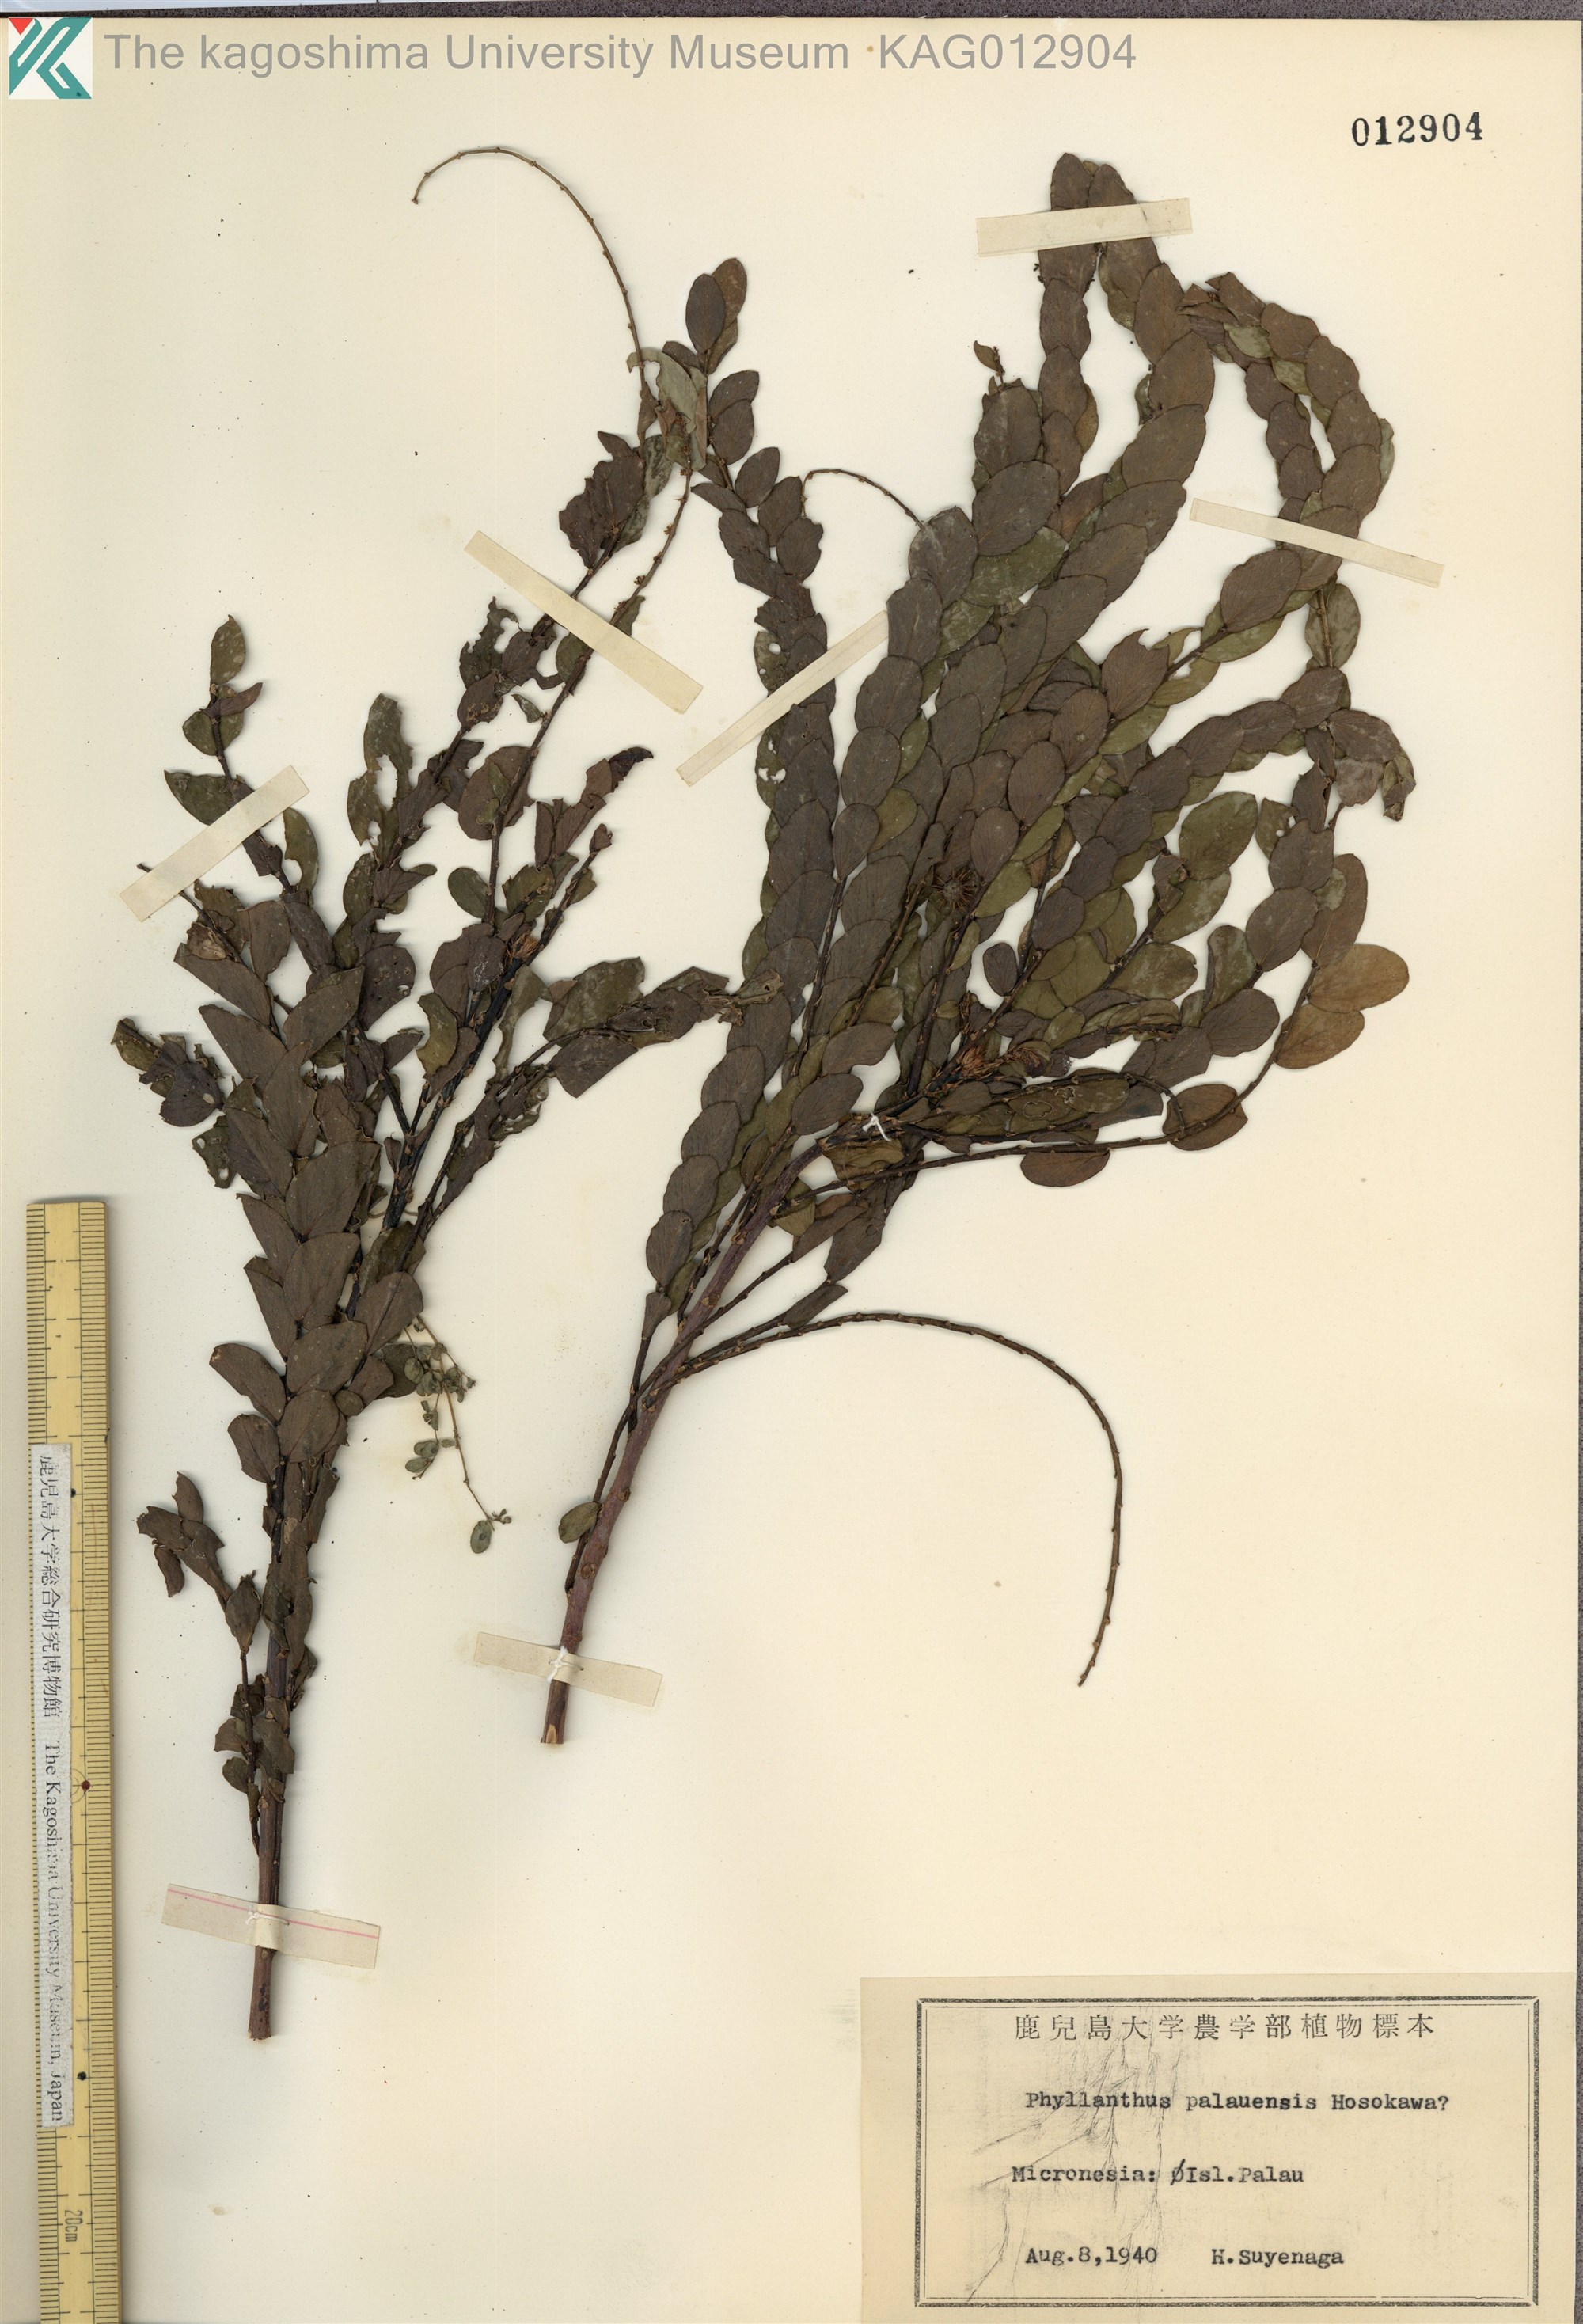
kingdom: Plantae
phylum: Tracheophyta
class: Magnoliopsida
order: Malpighiales
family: Phyllanthaceae
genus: Phyllanthus
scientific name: Phyllanthus palauensis
